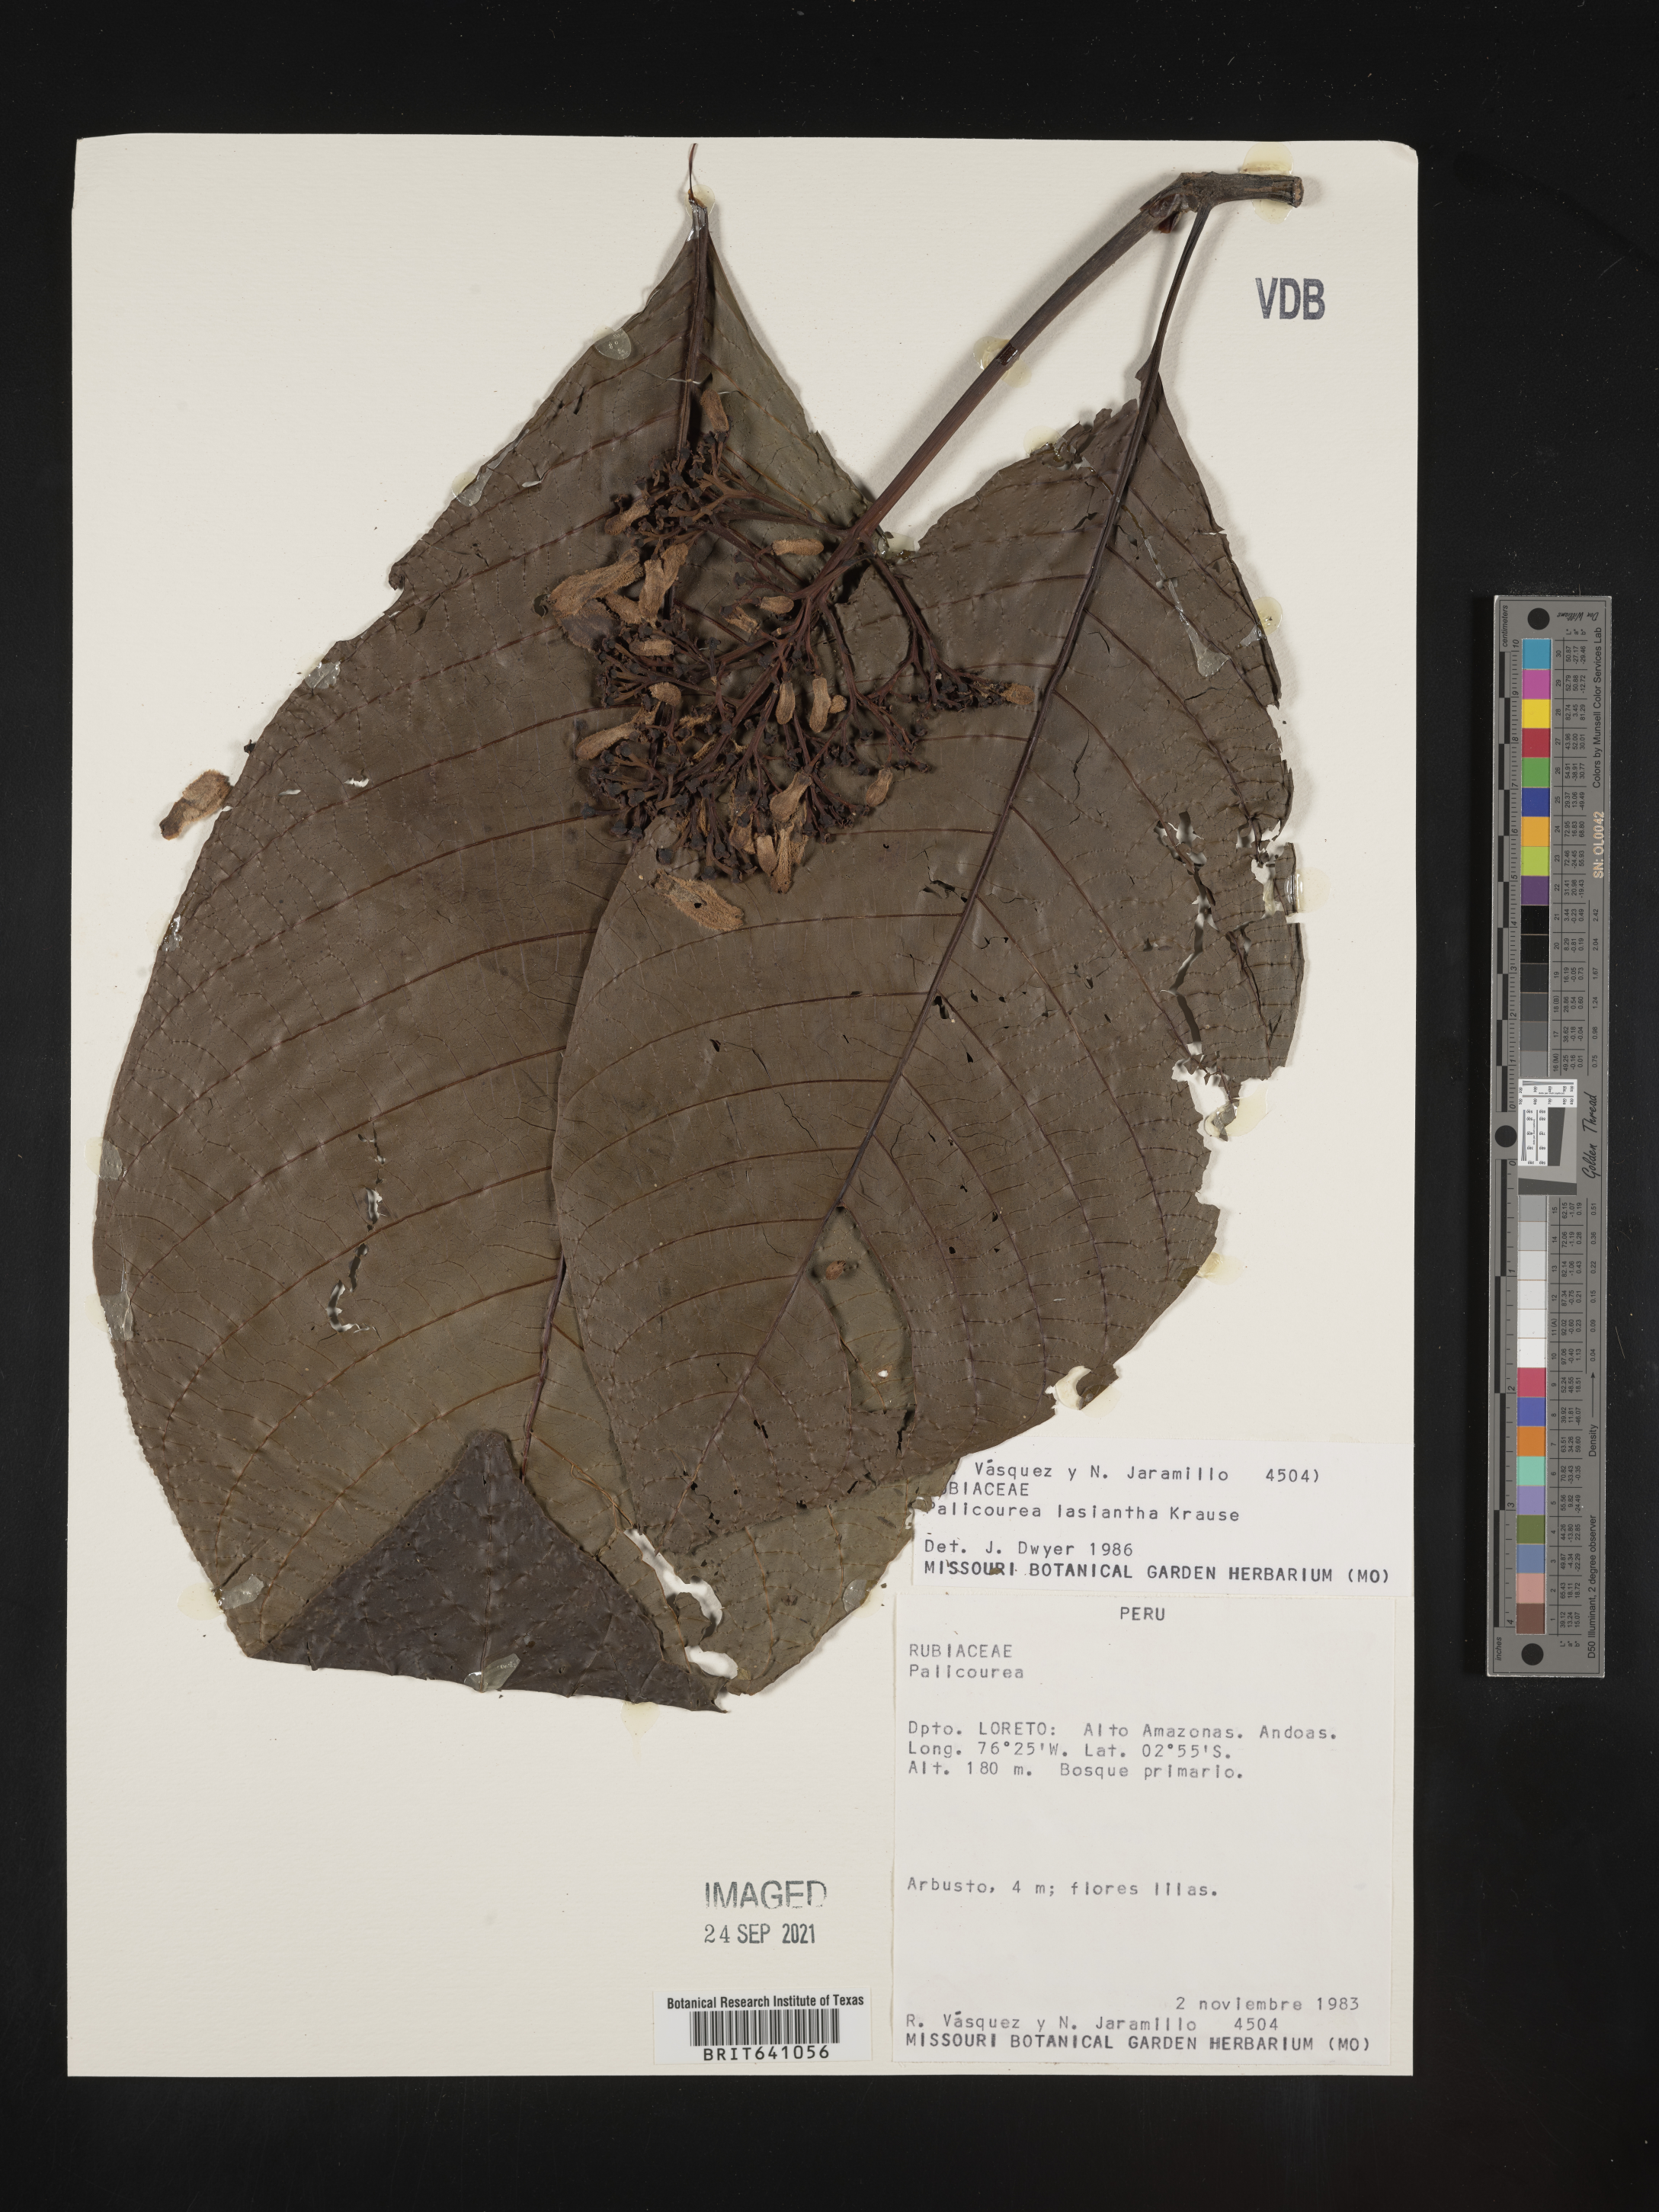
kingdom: Plantae
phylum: Tracheophyta
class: Magnoliopsida
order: Gentianales
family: Rubiaceae
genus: Palicourea
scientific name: Palicourea
